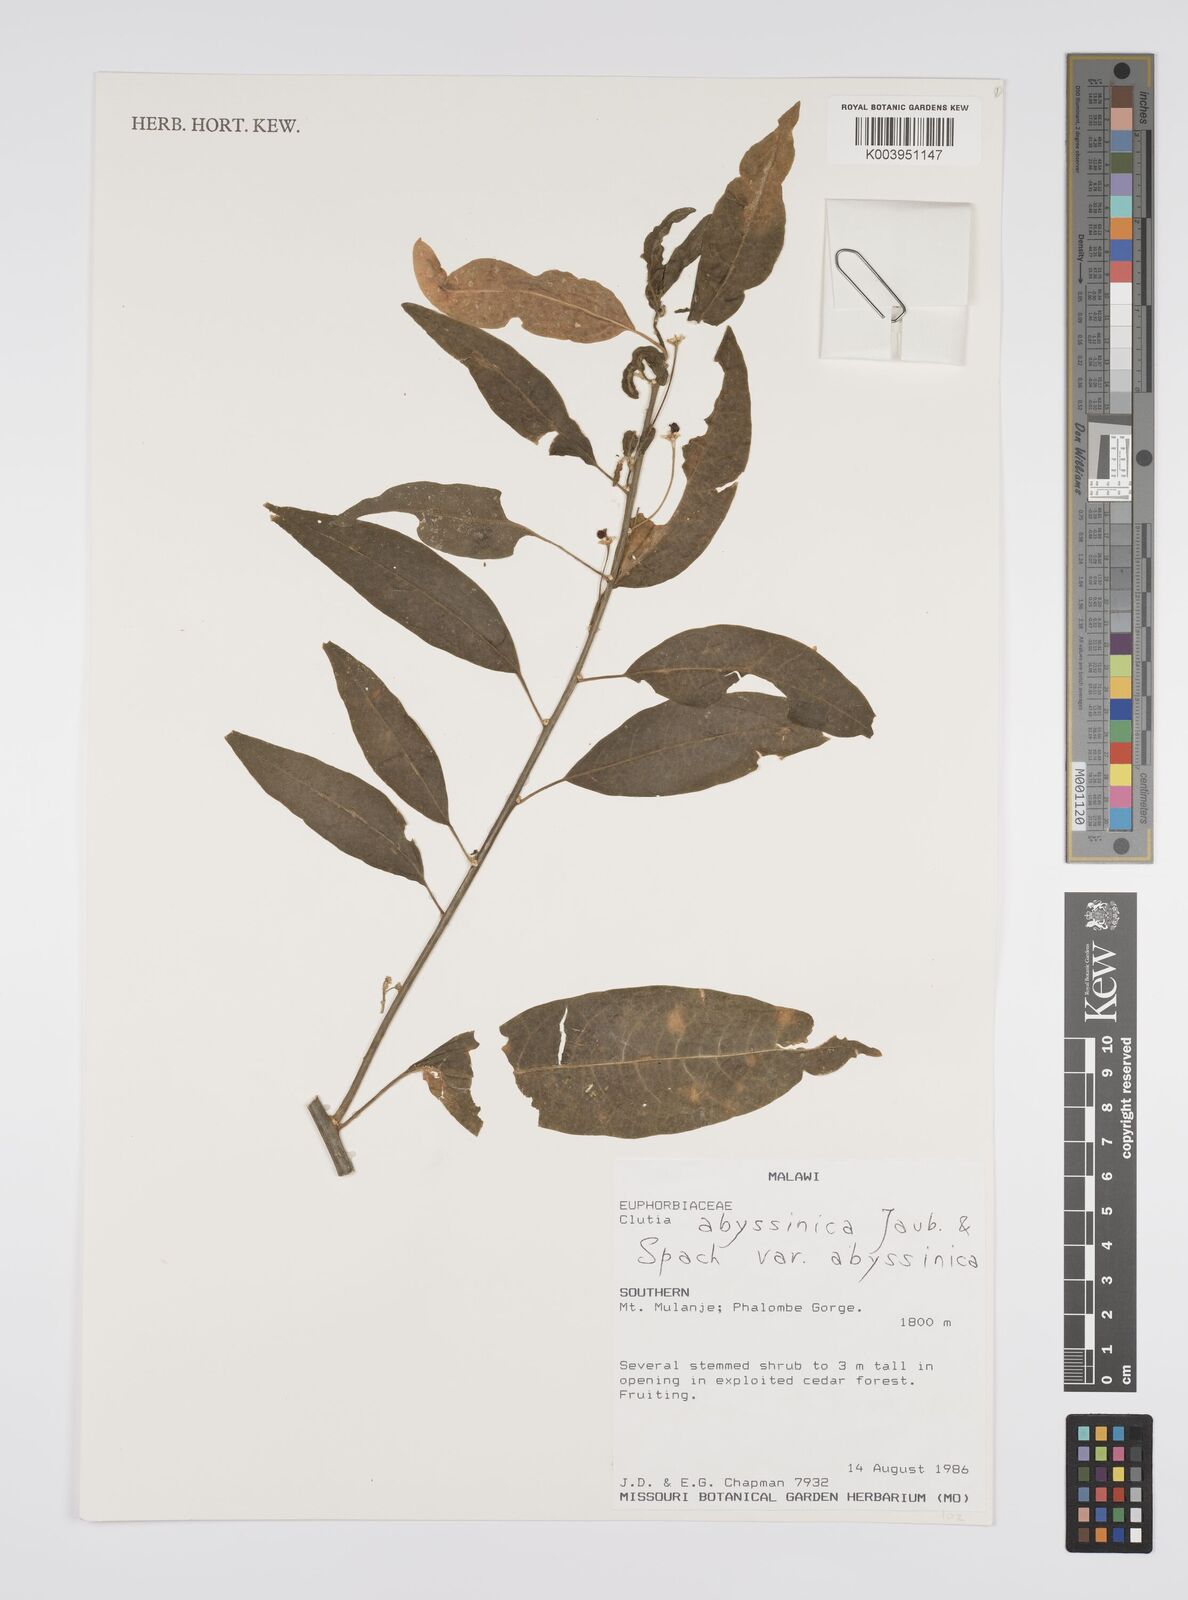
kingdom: Plantae
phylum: Tracheophyta
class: Magnoliopsida
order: Malpighiales
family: Peraceae
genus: Clutia
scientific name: Clutia abyssinica
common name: Large lightning bush
